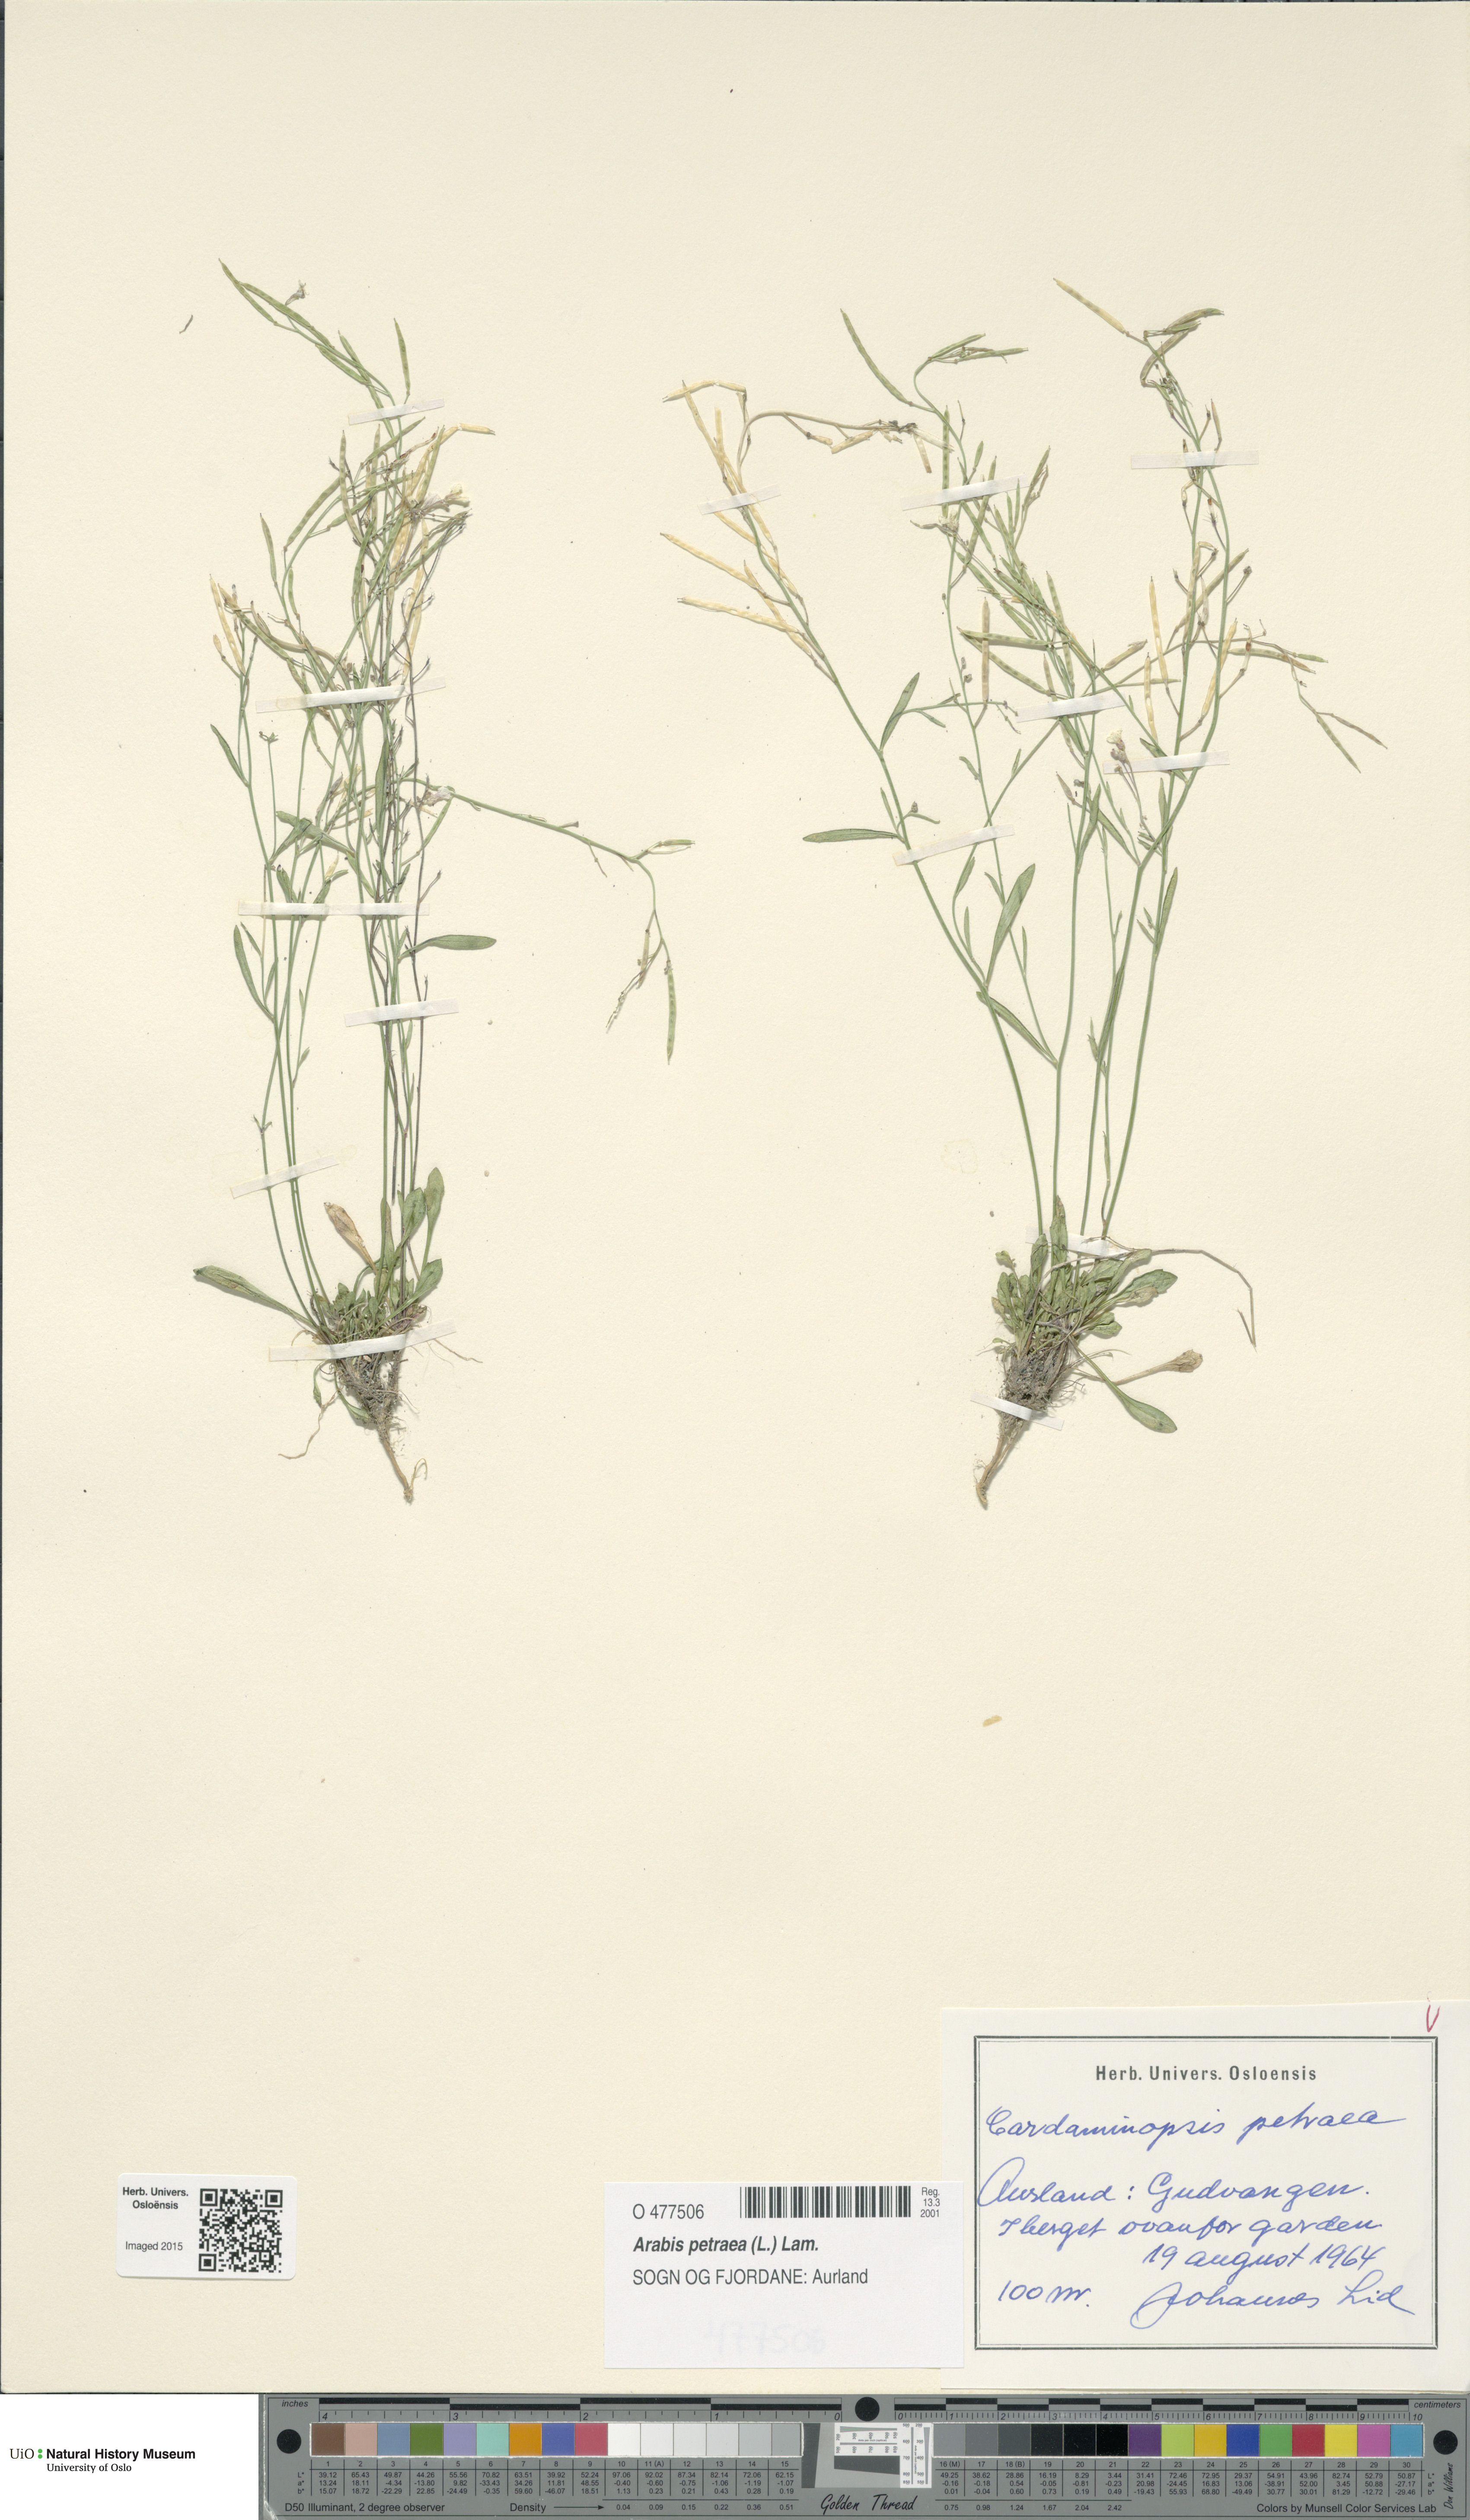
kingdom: Plantae
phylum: Tracheophyta
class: Magnoliopsida
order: Brassicales
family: Brassicaceae
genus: Arabidopsis
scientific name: Arabidopsis petraea
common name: Northern rock-cress
